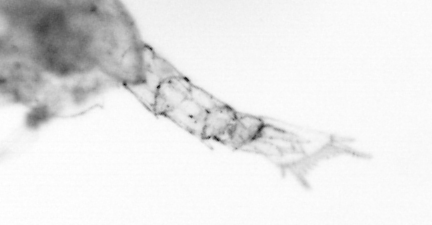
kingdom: Animalia
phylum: Arthropoda
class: Copepoda
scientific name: Copepoda
